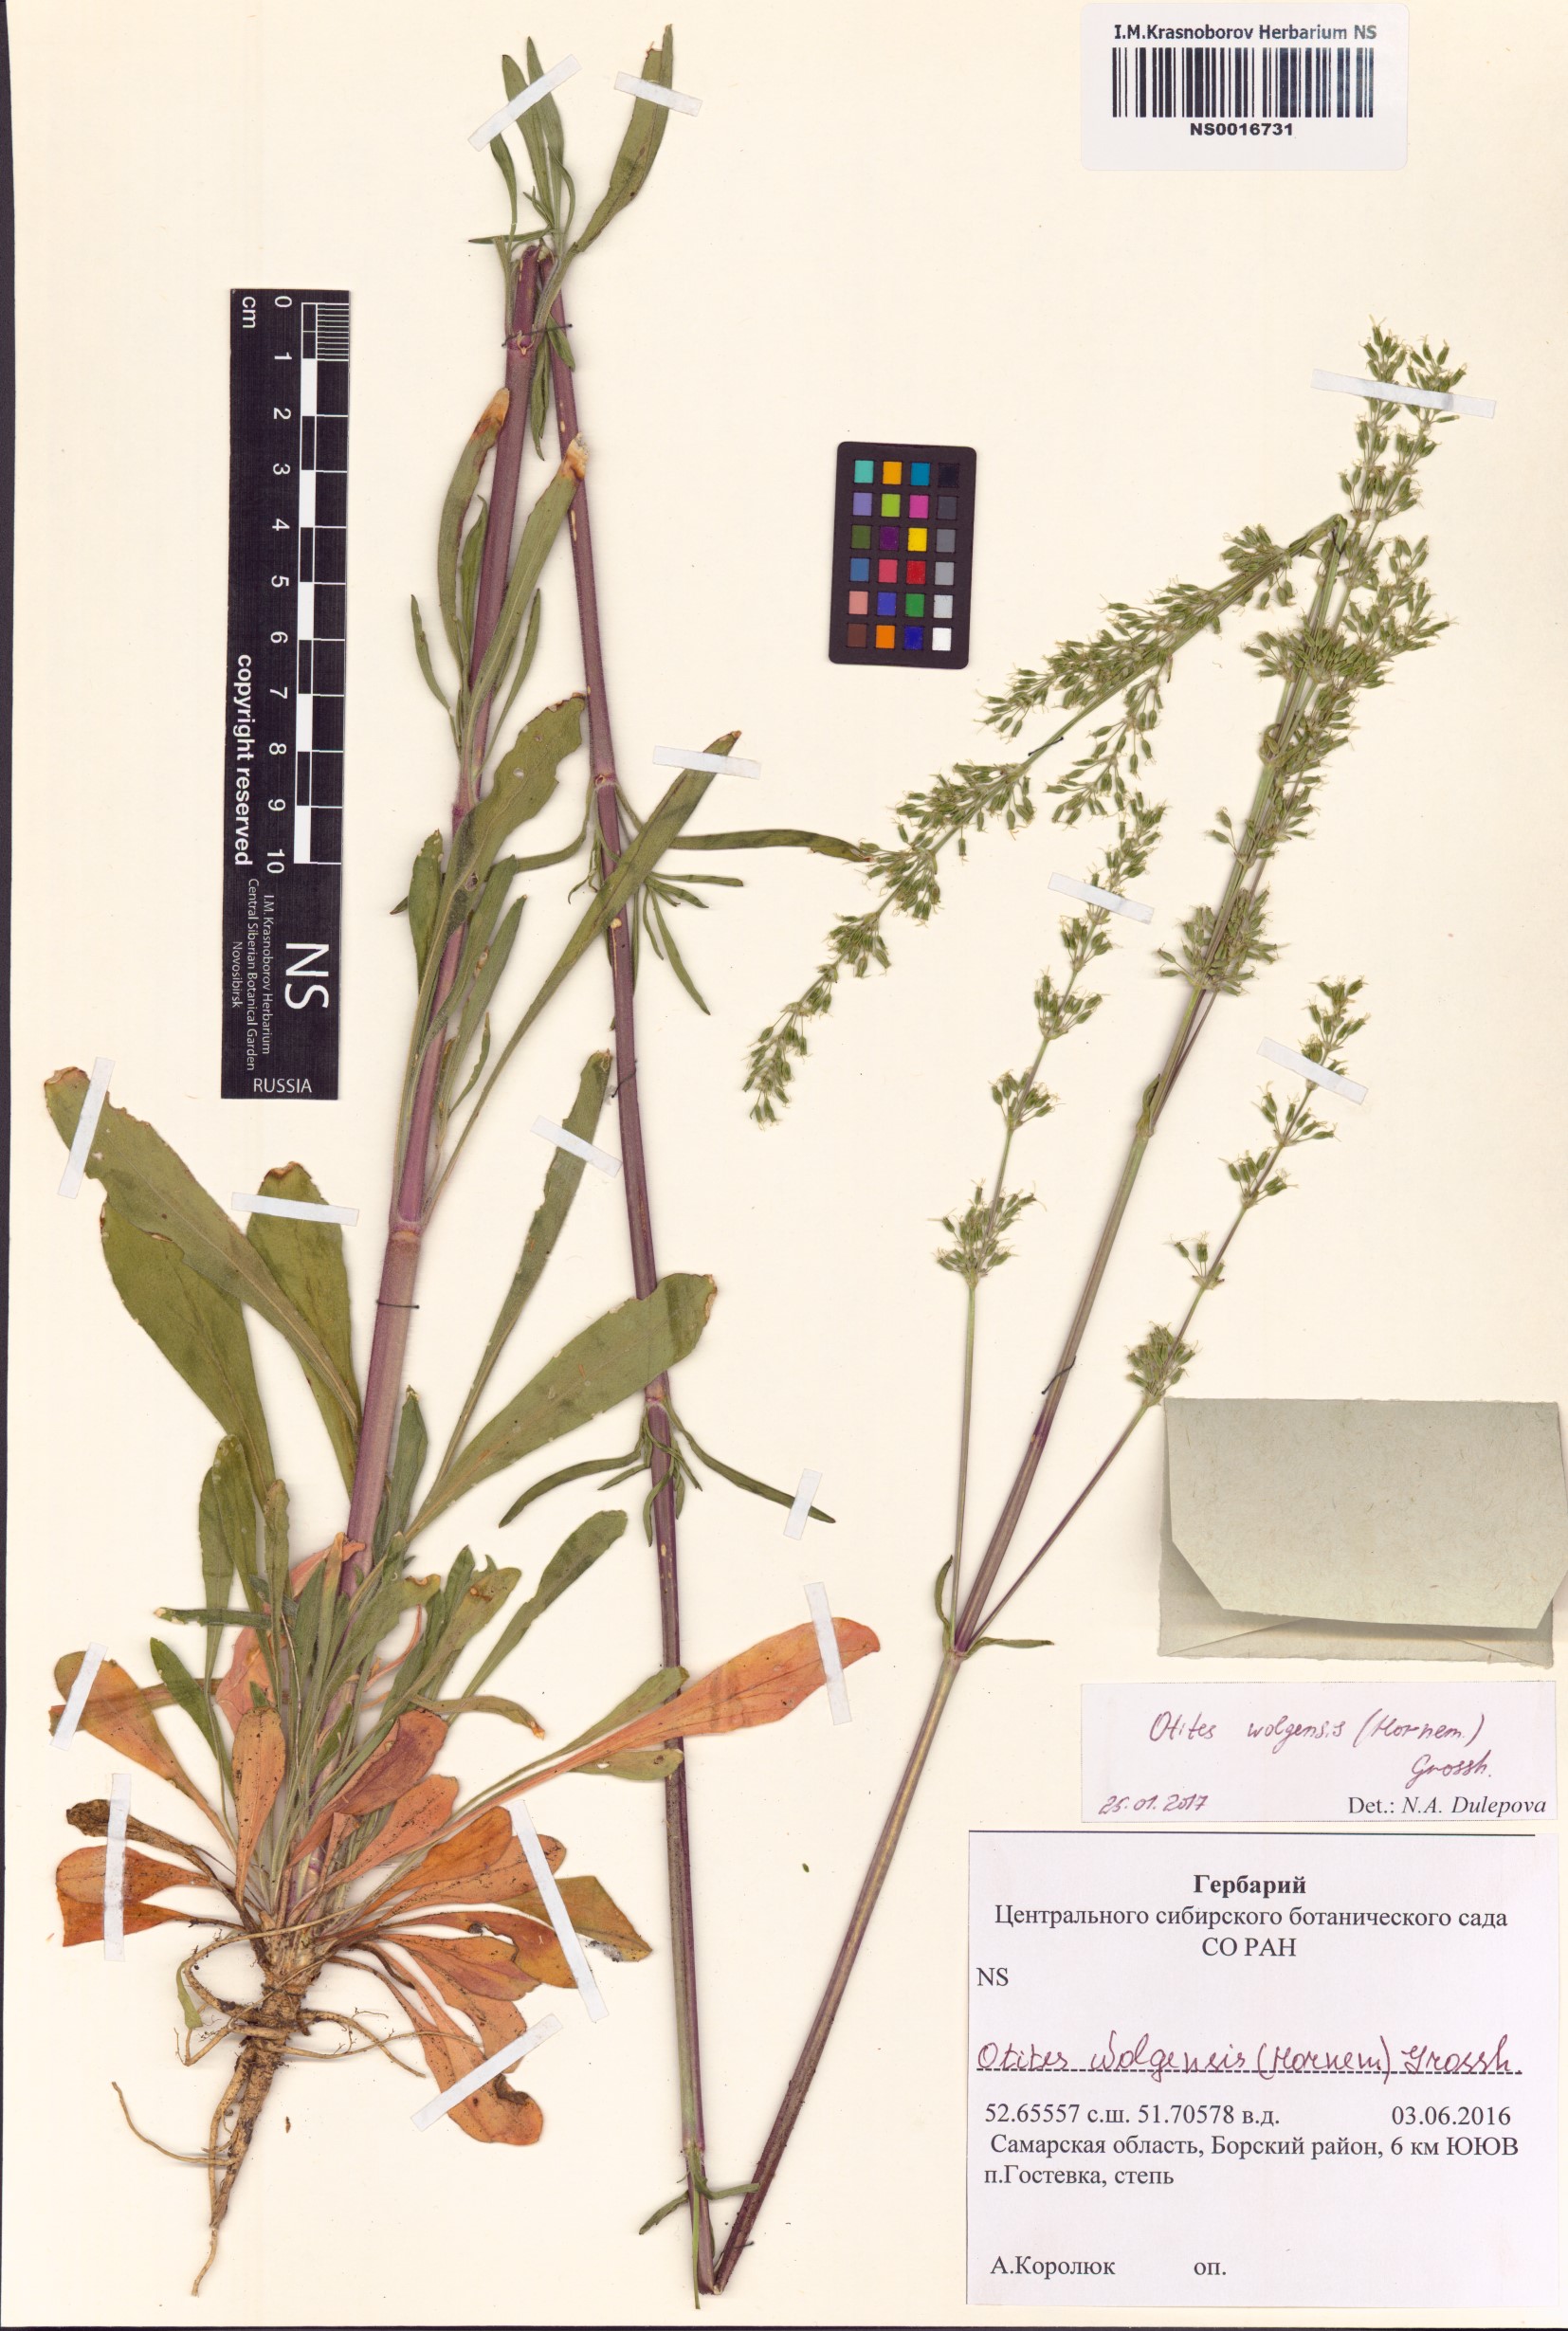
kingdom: Plantae
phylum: Tracheophyta
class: Magnoliopsida
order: Caryophyllales
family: Caryophyllaceae
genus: Silene
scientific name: Silene wolgensis
